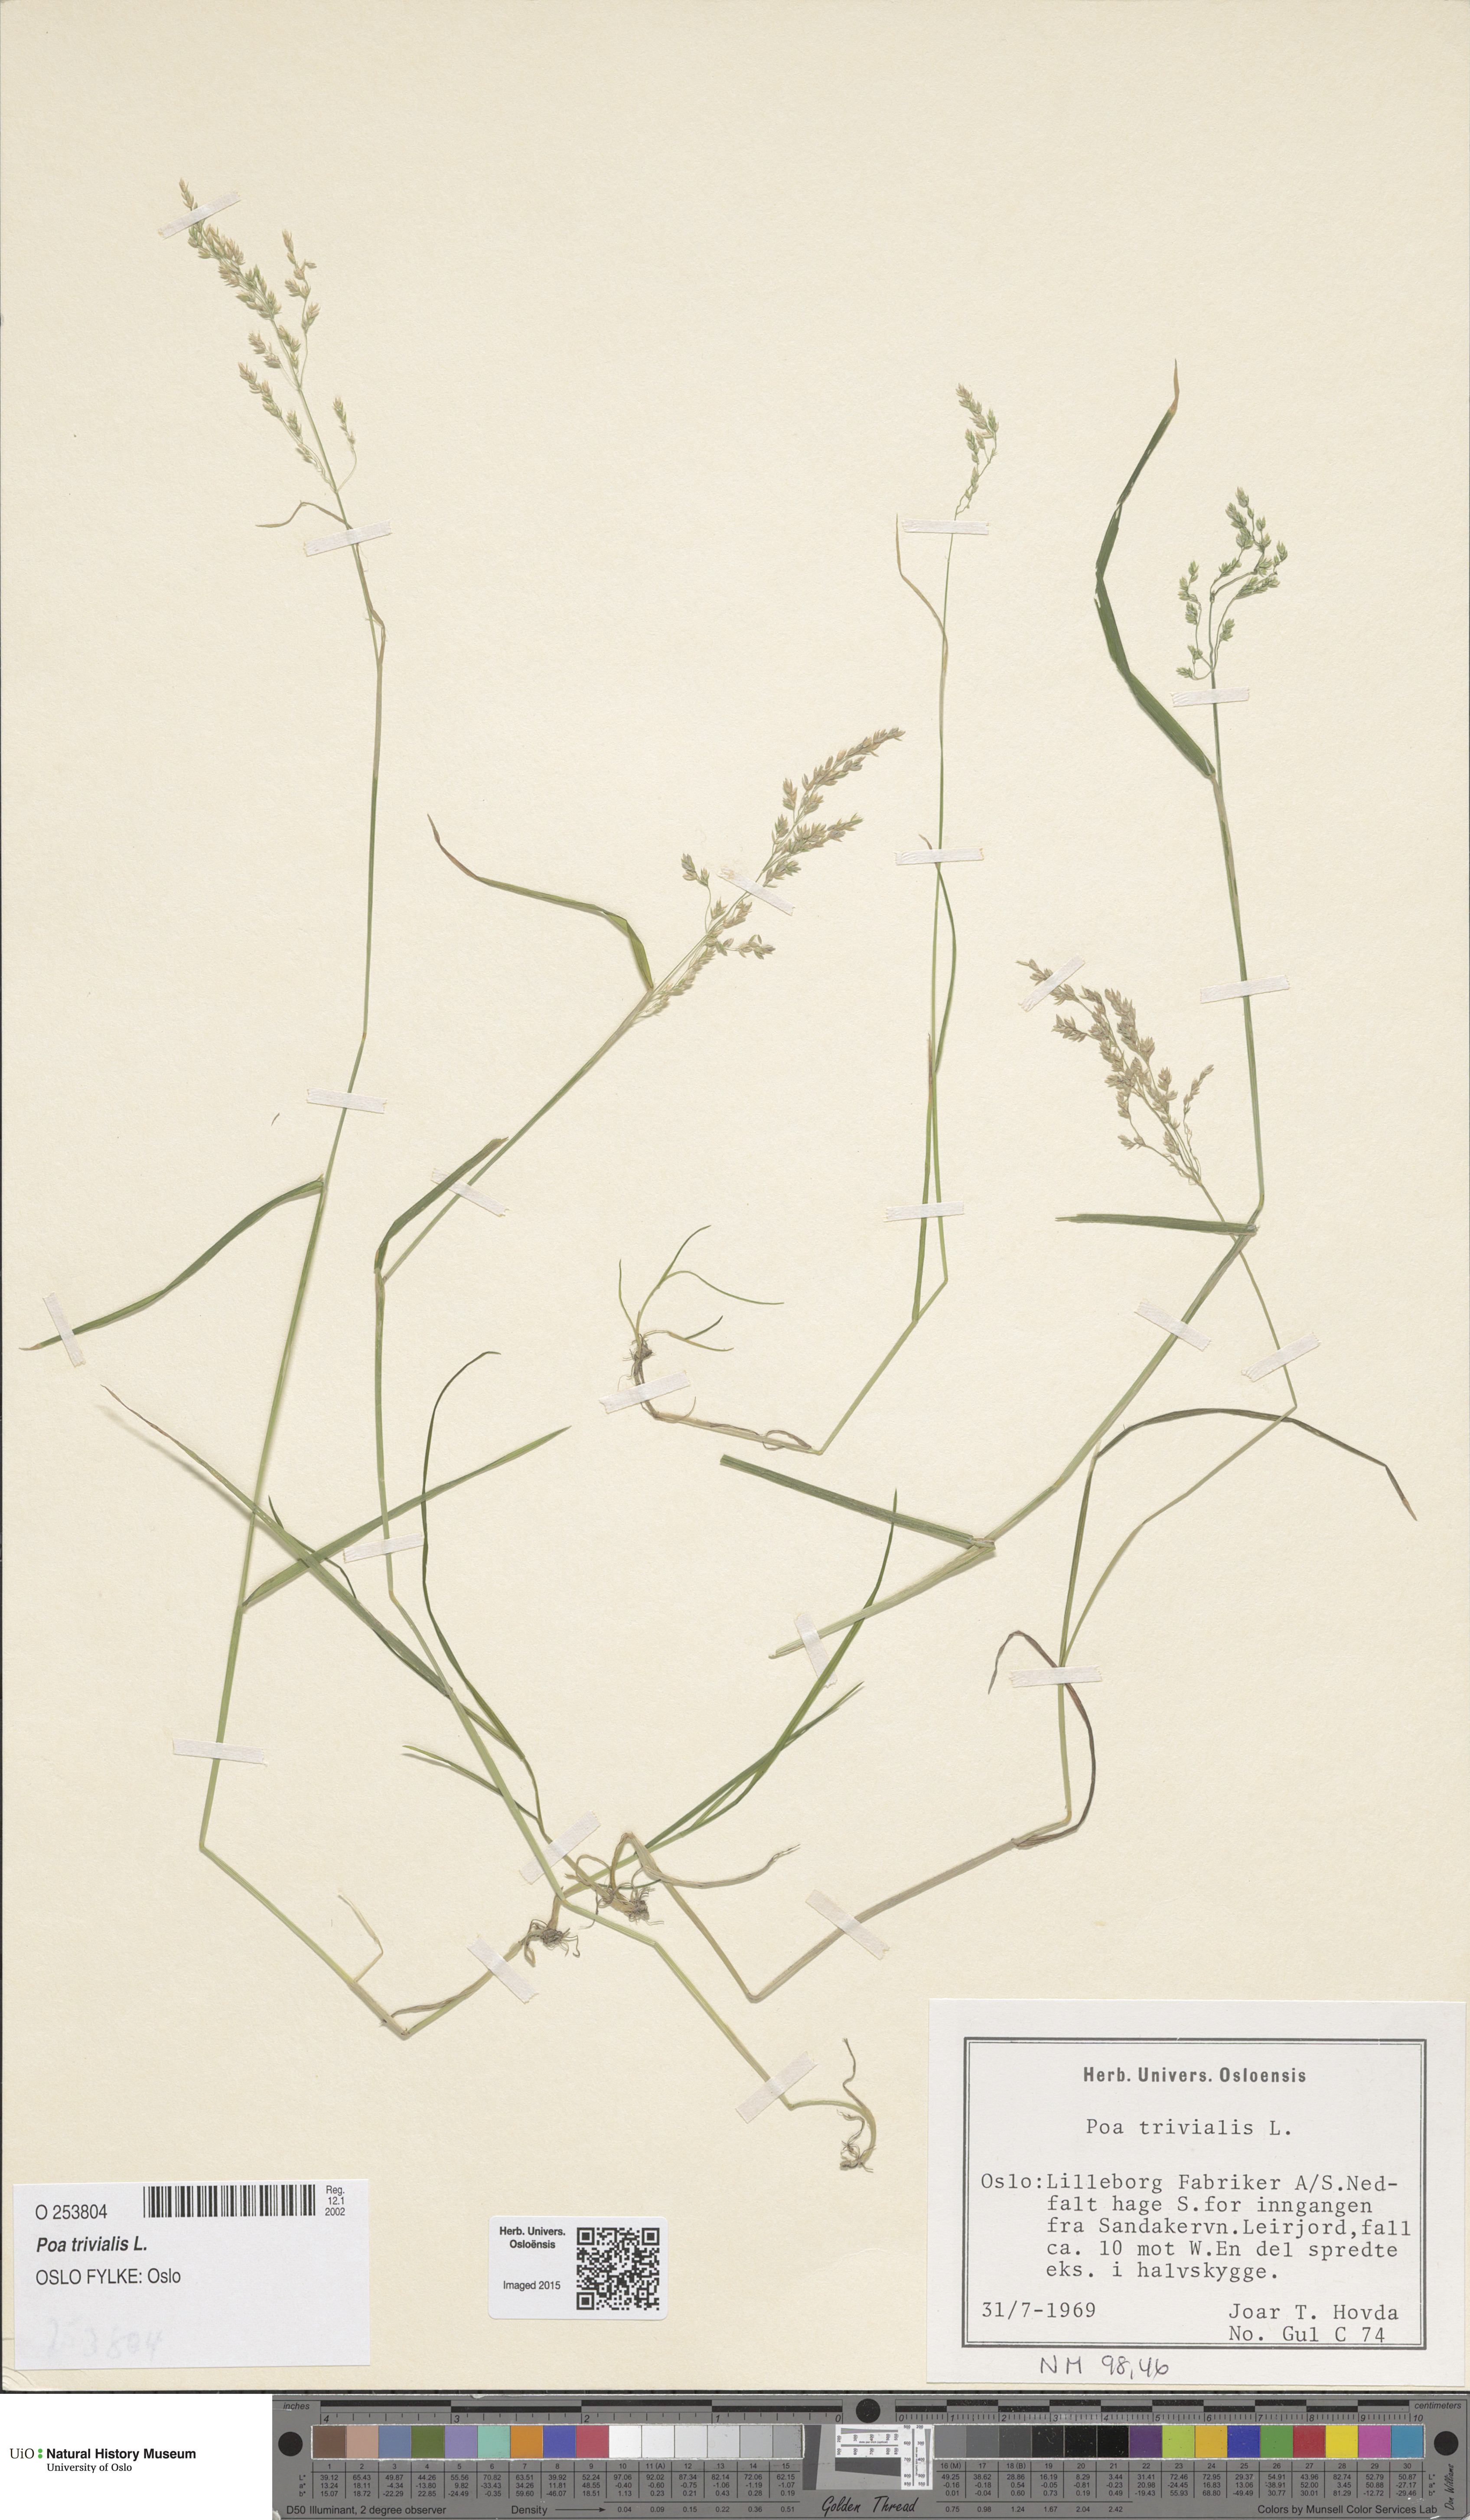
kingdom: Plantae
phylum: Tracheophyta
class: Liliopsida
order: Poales
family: Poaceae
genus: Poa
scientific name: Poa trivialis
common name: Rough bluegrass
